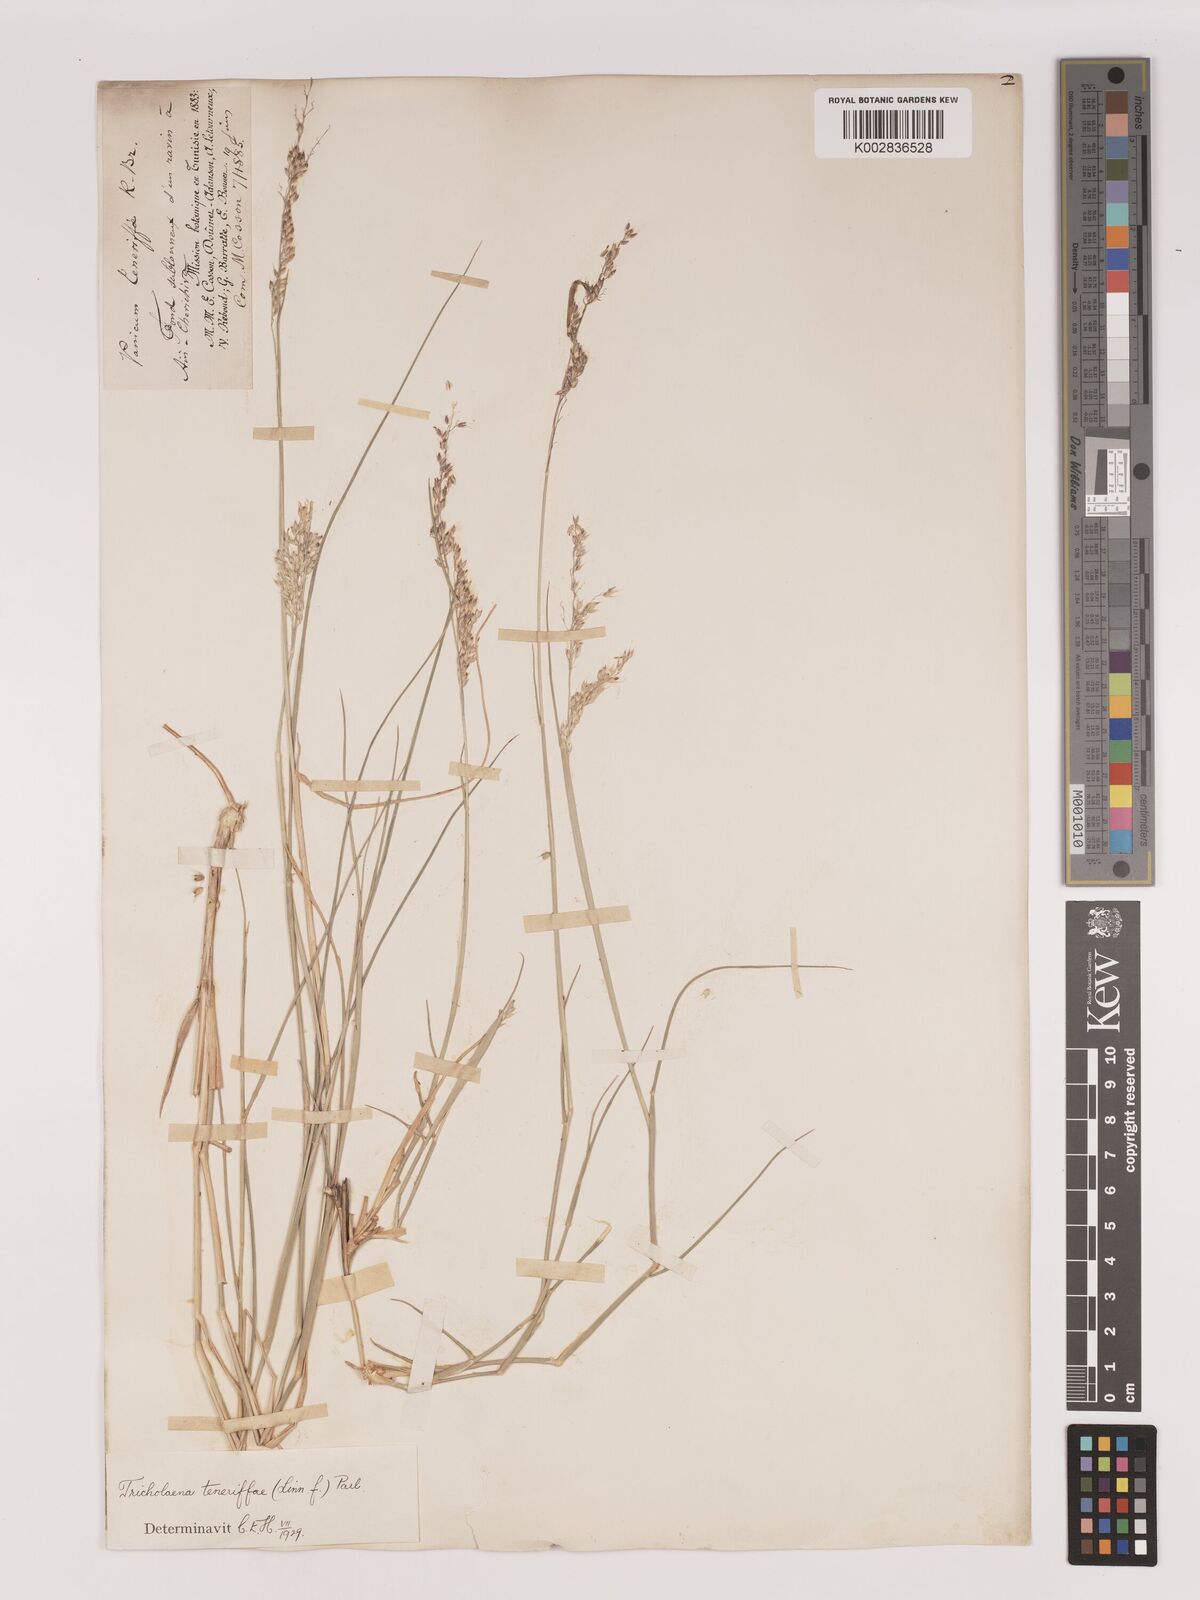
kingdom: Plantae
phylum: Tracheophyta
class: Liliopsida
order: Poales
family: Poaceae
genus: Tricholaena
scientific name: Tricholaena teneriffae
